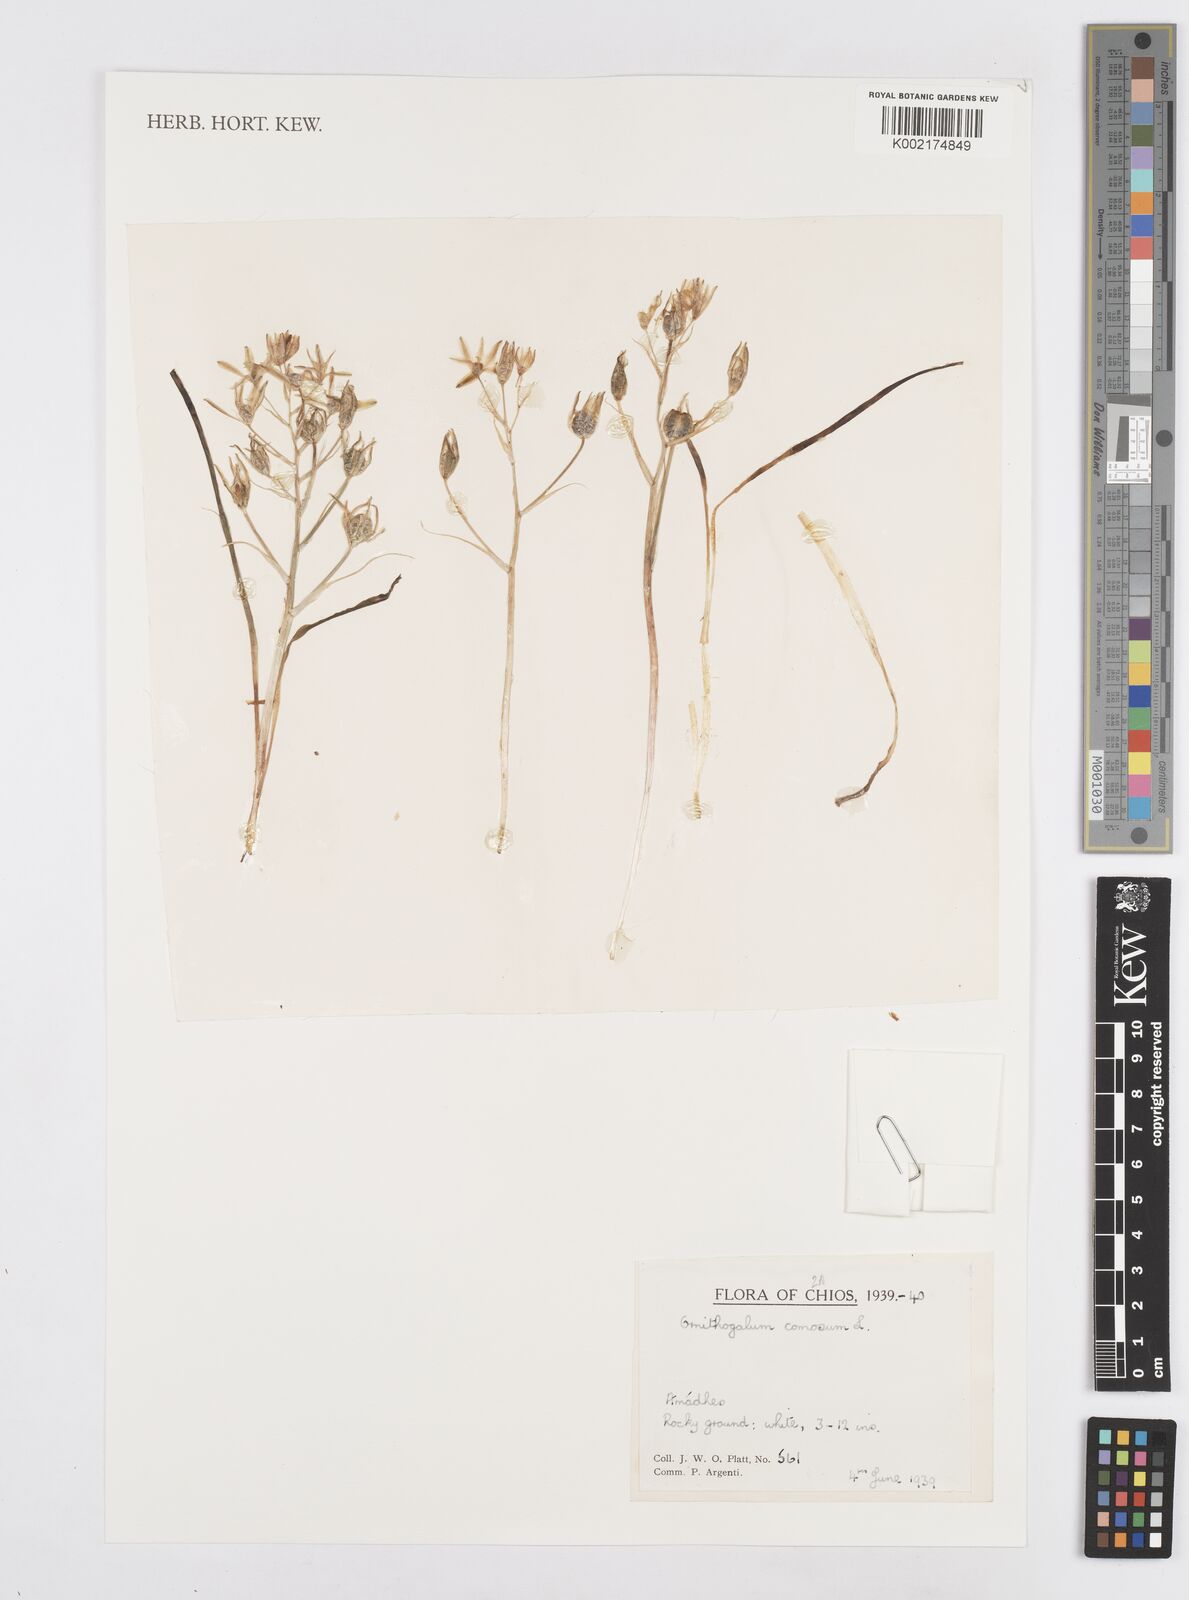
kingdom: Plantae
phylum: Tracheophyta
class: Liliopsida
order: Asparagales
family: Asparagaceae
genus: Ornithogalum
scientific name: Ornithogalum comosum
